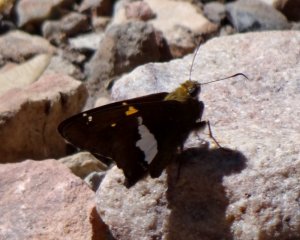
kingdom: Animalia
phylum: Arthropoda
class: Insecta
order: Lepidoptera
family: Hesperiidae
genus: Epargyreus
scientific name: Epargyreus clarus
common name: Silver-spotted Skipper
